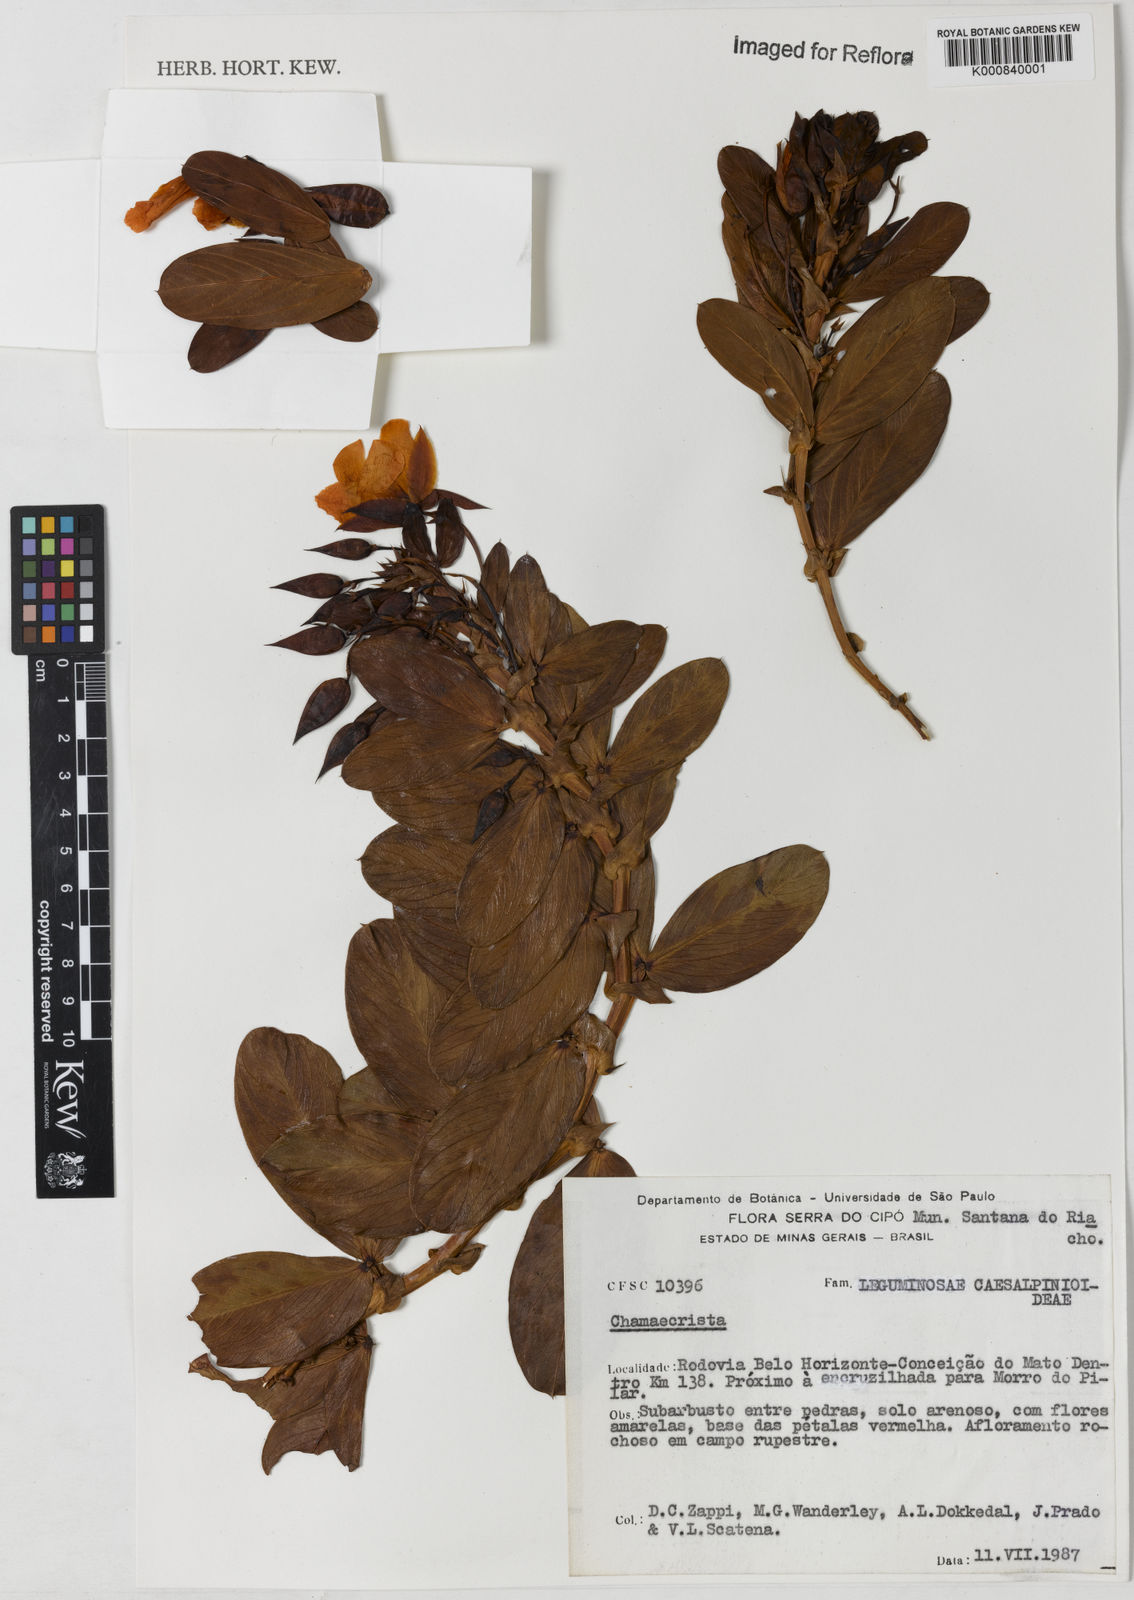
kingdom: Plantae
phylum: Tracheophyta
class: Magnoliopsida
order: Fabales
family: Fabaceae
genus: Chamaecrista
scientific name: Chamaecrista latifolia
